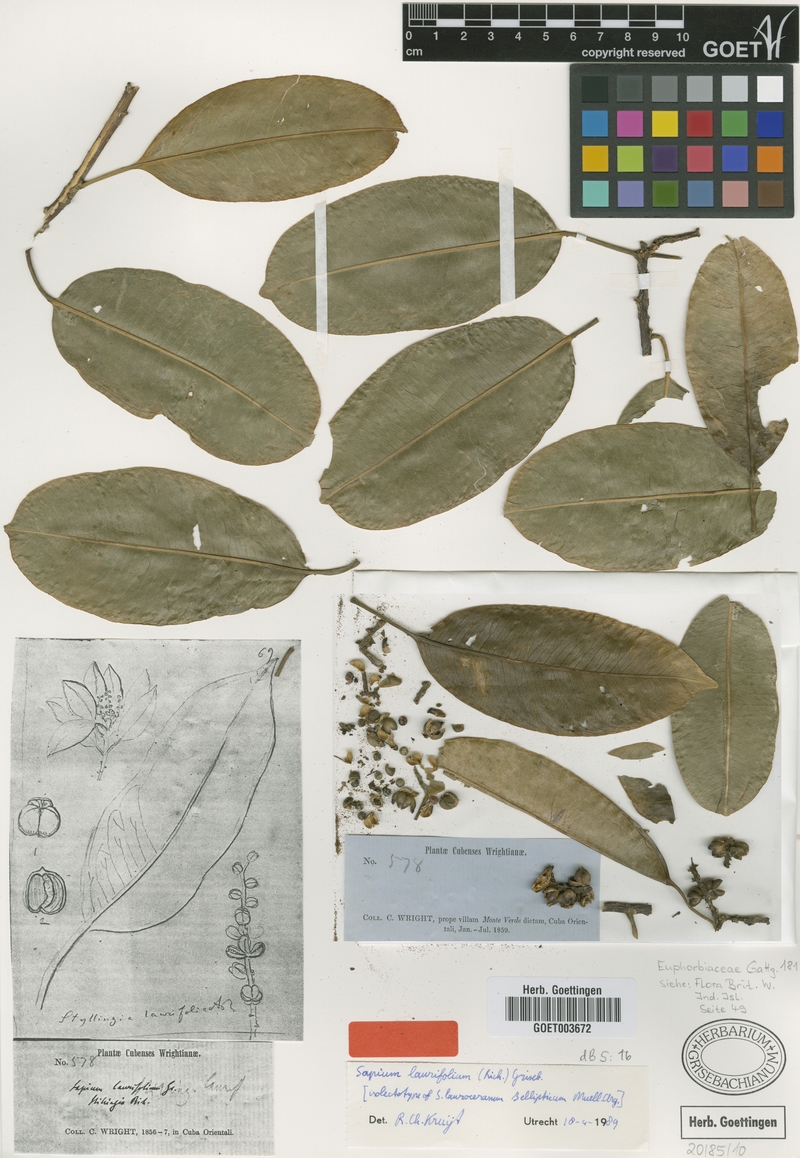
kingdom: Plantae
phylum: Tracheophyta
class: Magnoliopsida
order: Malpighiales
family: Euphorbiaceae
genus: Sapium
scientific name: Sapium laurifolium
